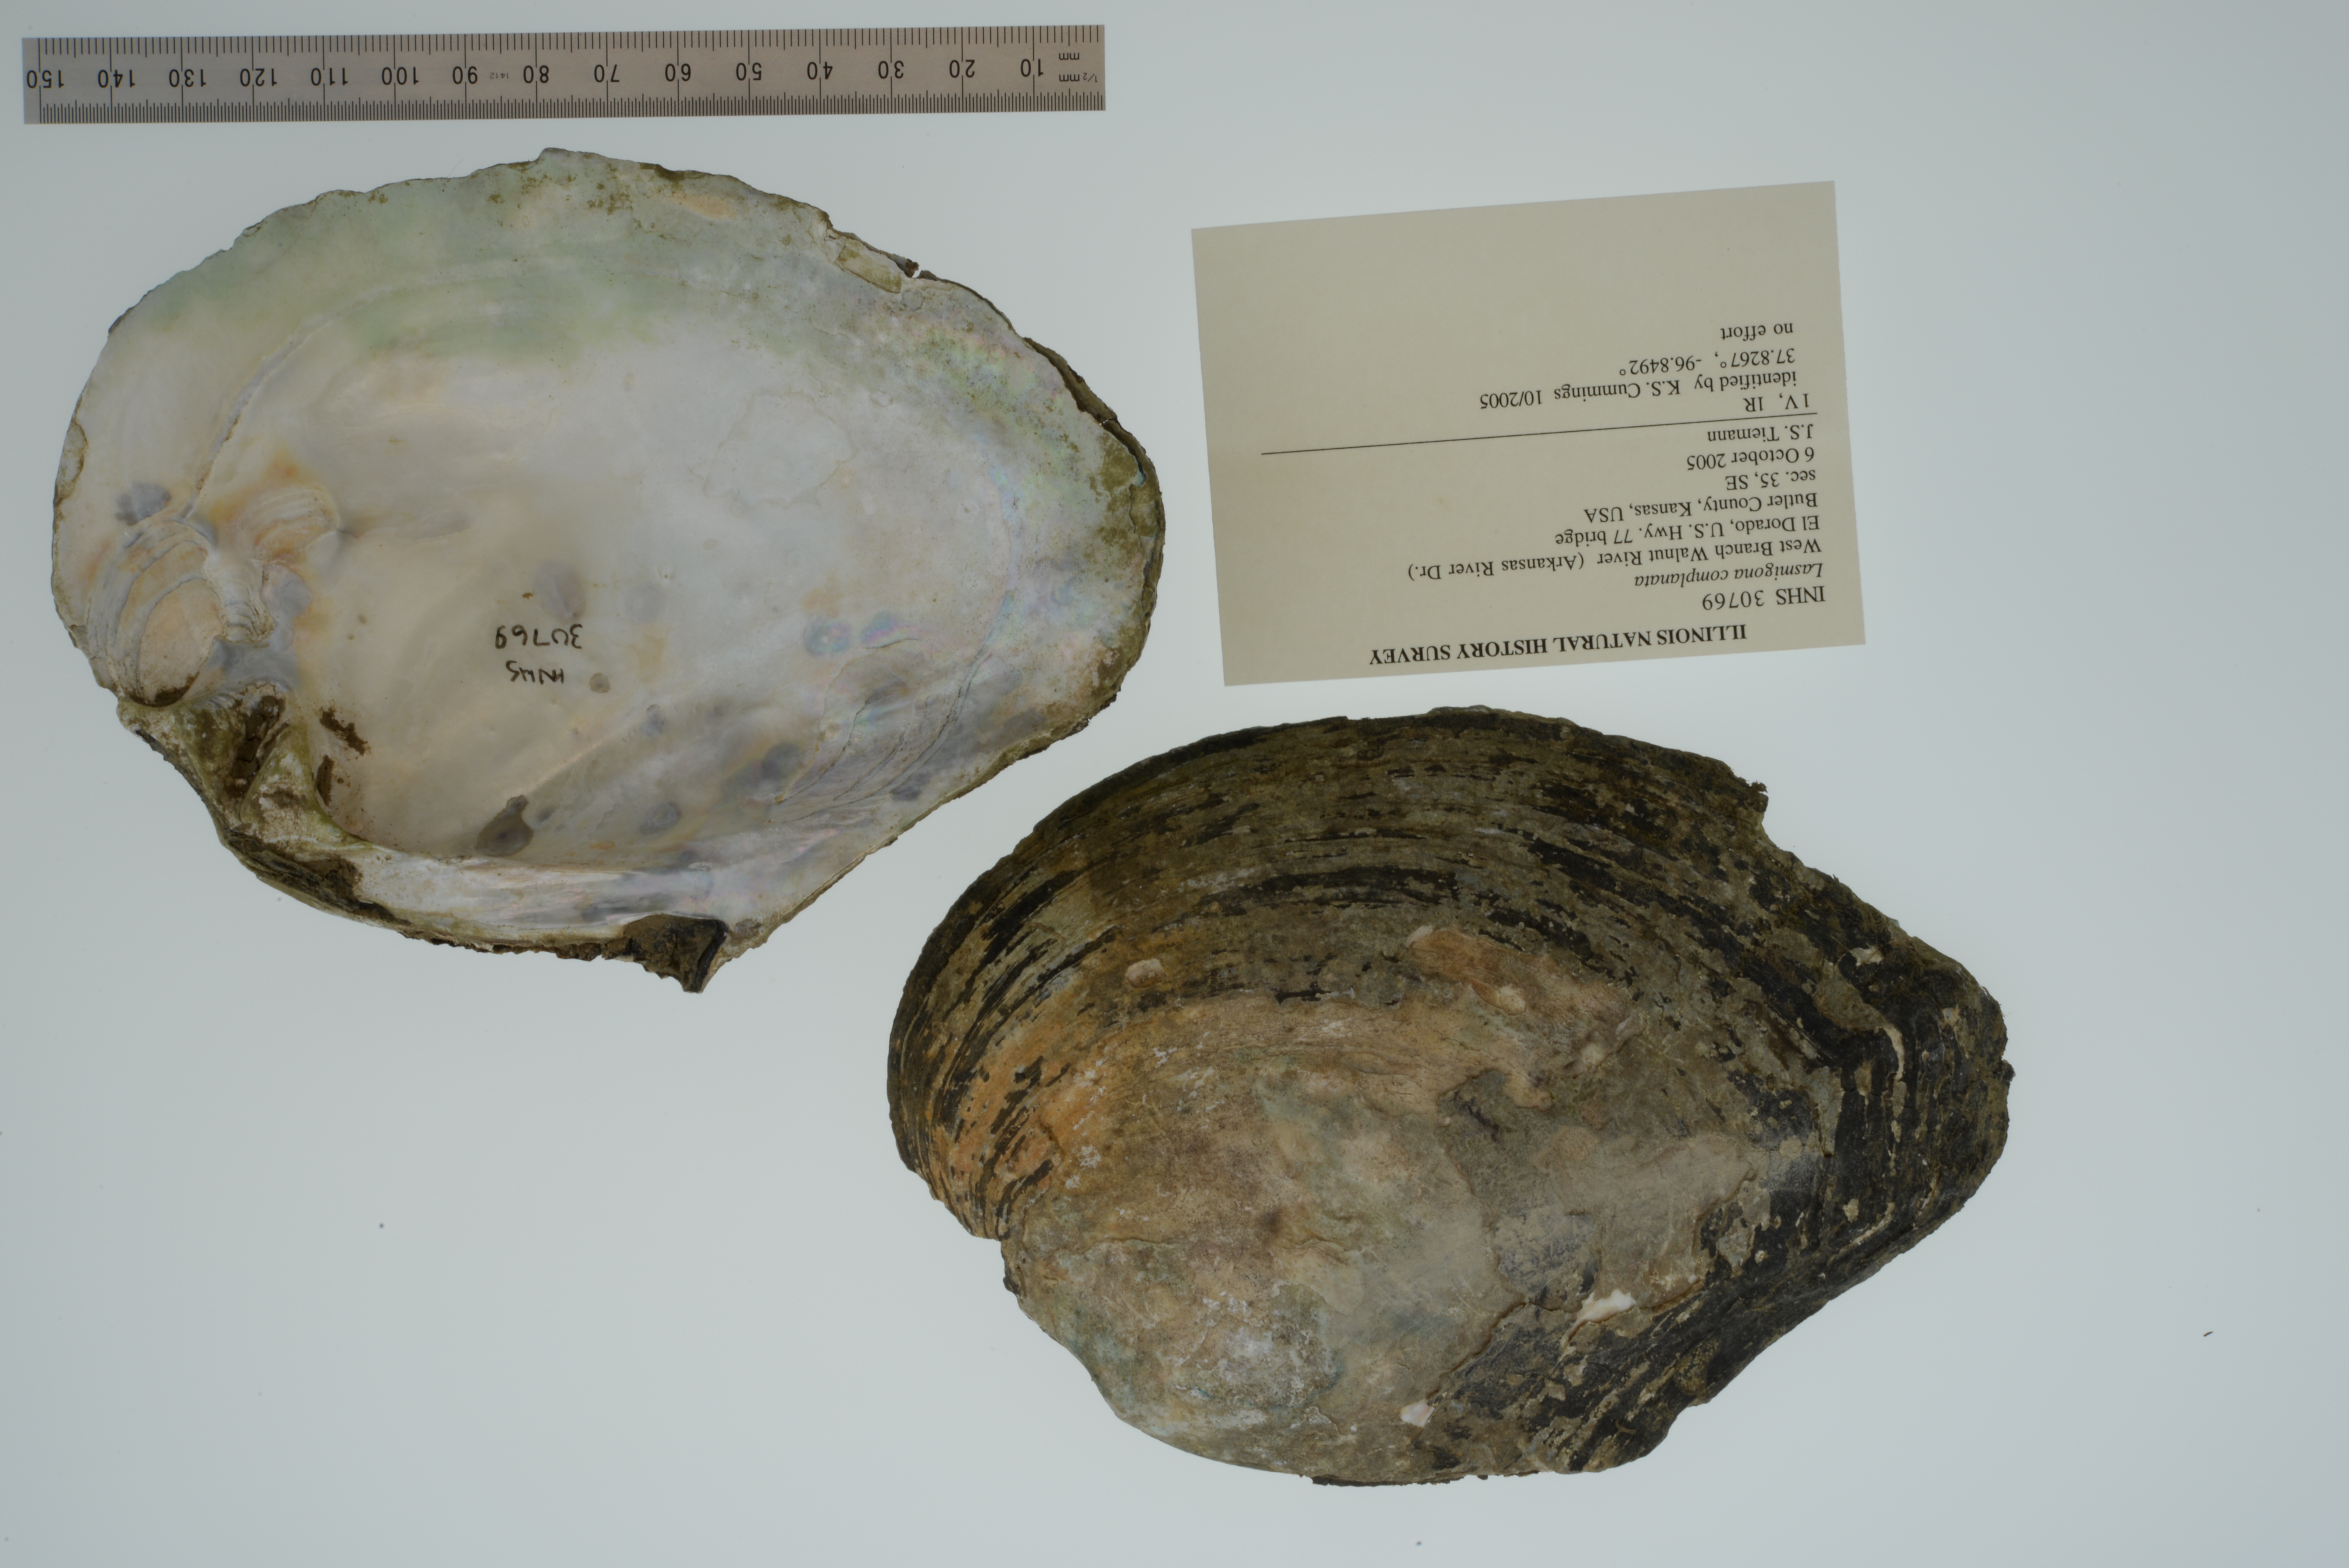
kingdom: Animalia
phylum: Mollusca
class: Bivalvia
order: Unionida
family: Unionidae
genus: Lasmigona
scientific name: Lasmigona complanata
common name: White heelsplitter
